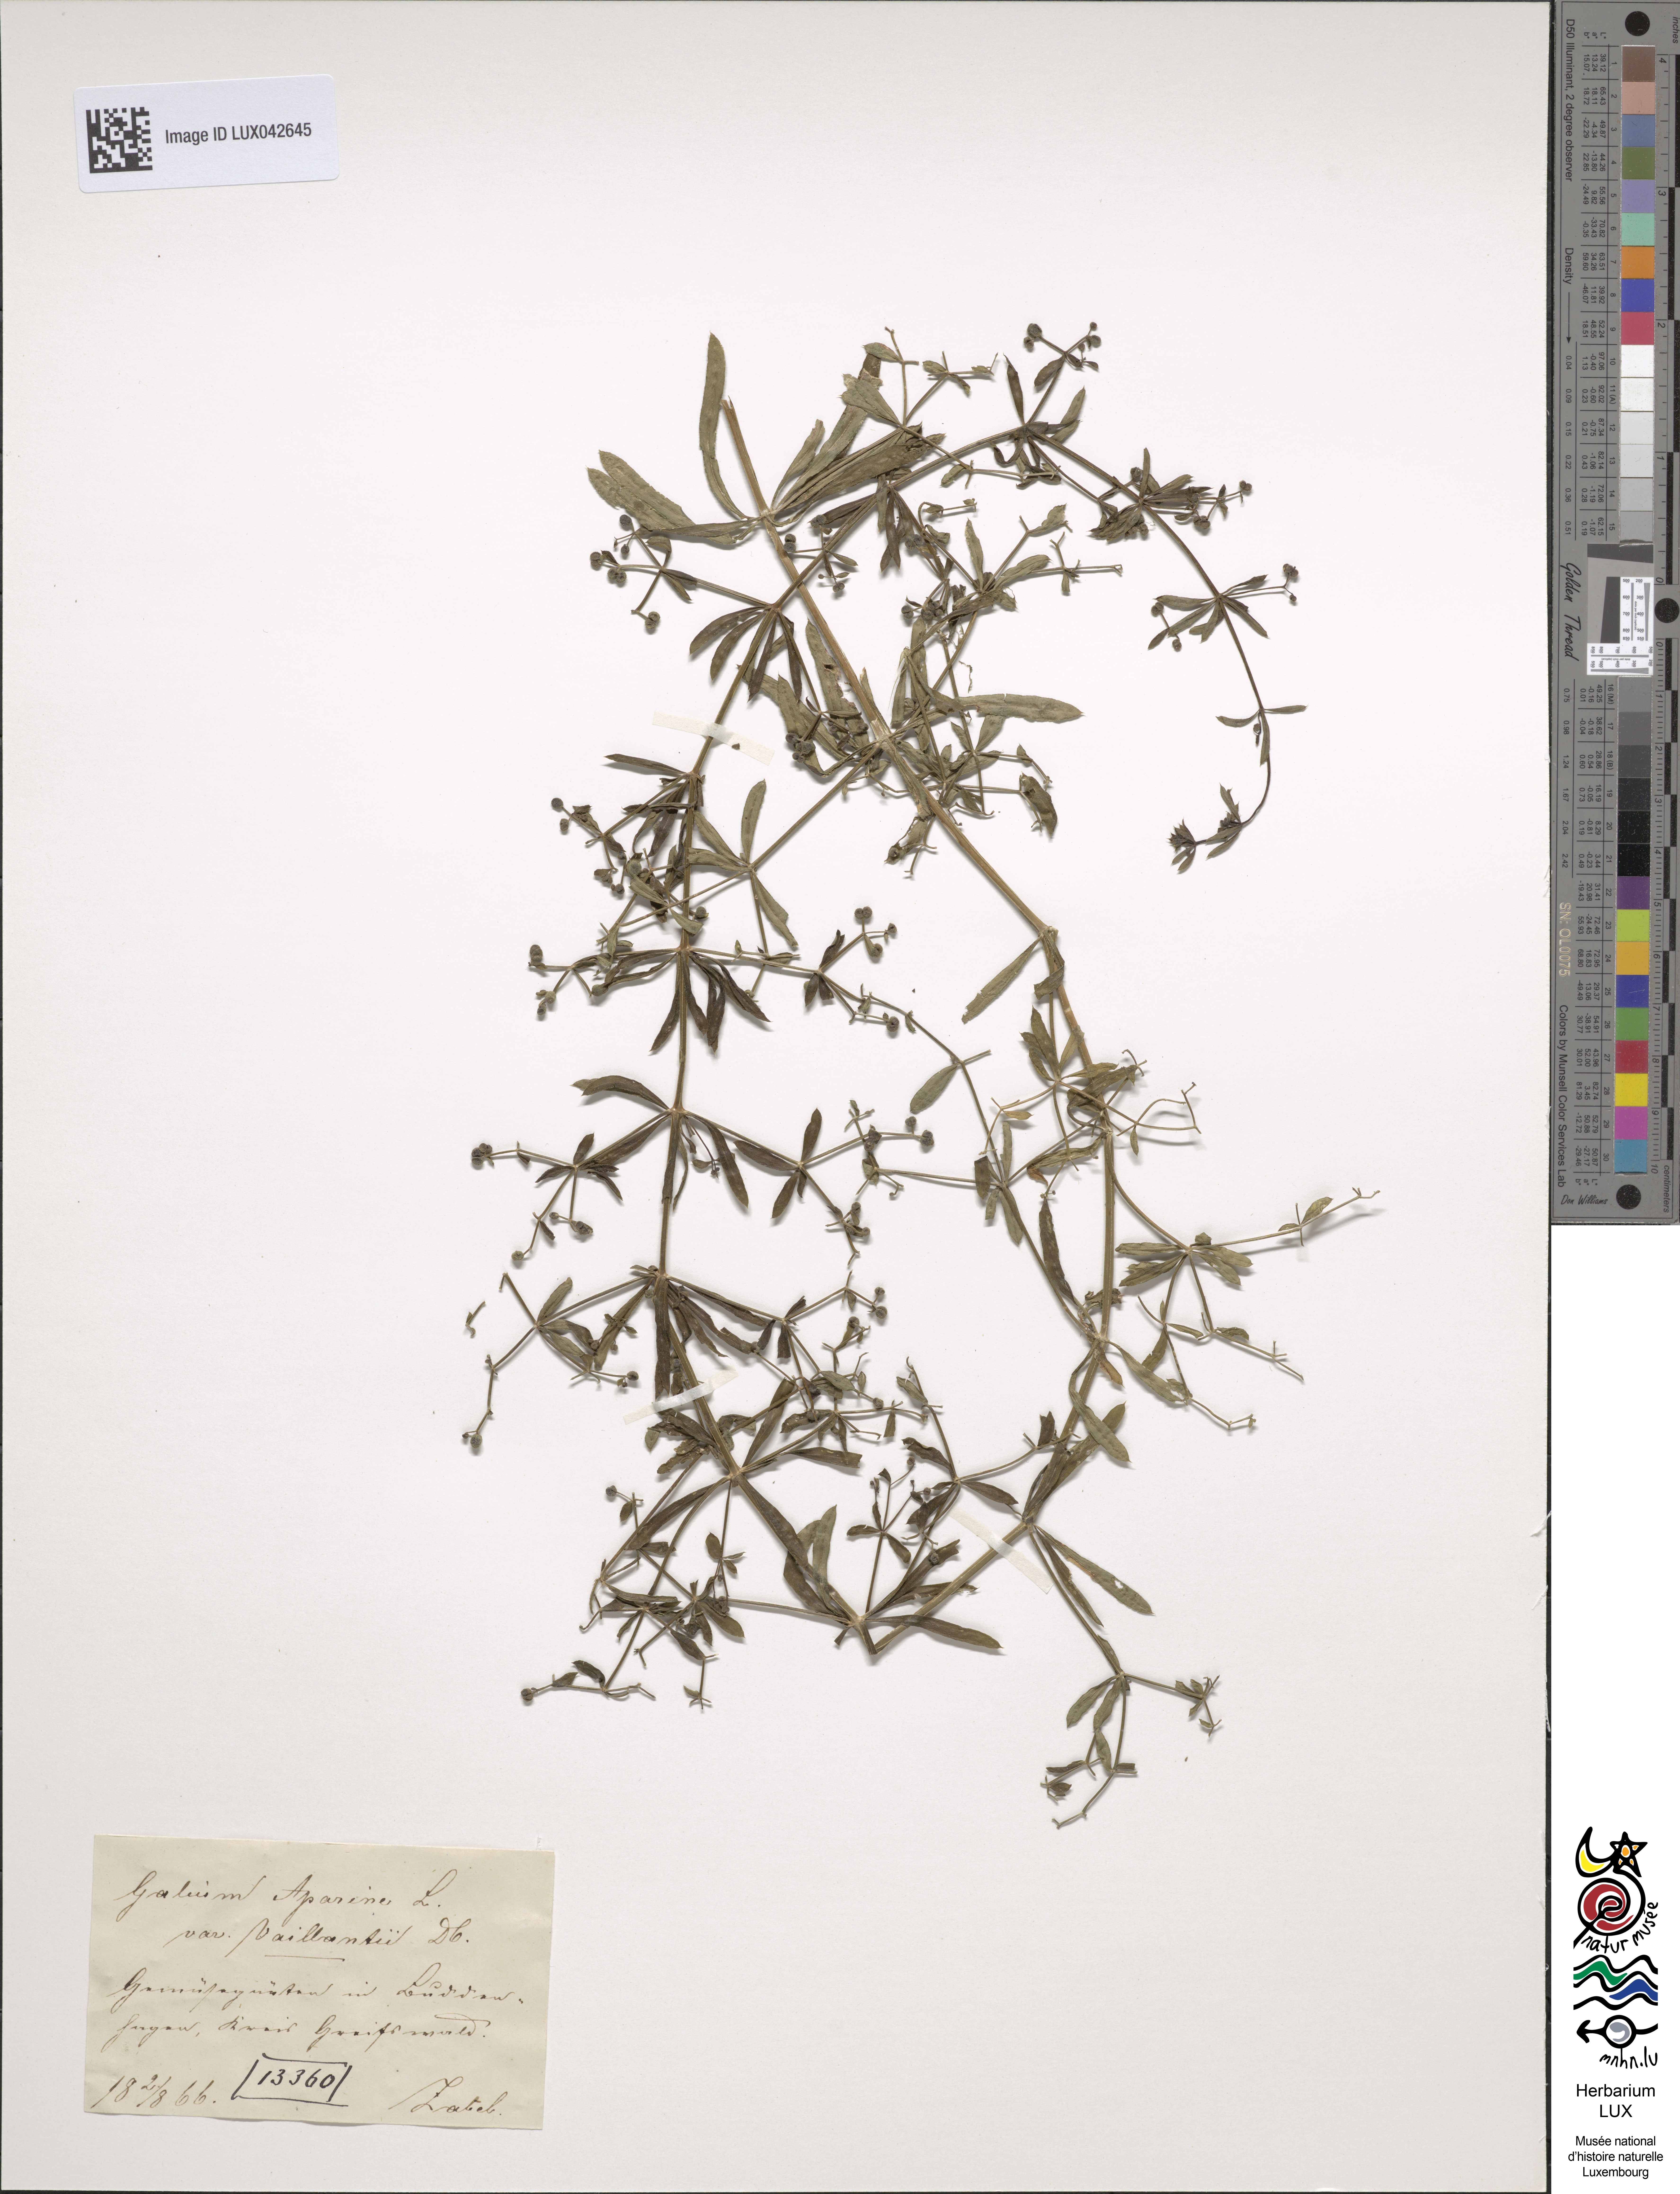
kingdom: Plantae
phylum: Tracheophyta
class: Magnoliopsida
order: Gentianales
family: Rubiaceae
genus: Galium
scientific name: Galium spurium
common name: False cleavers
